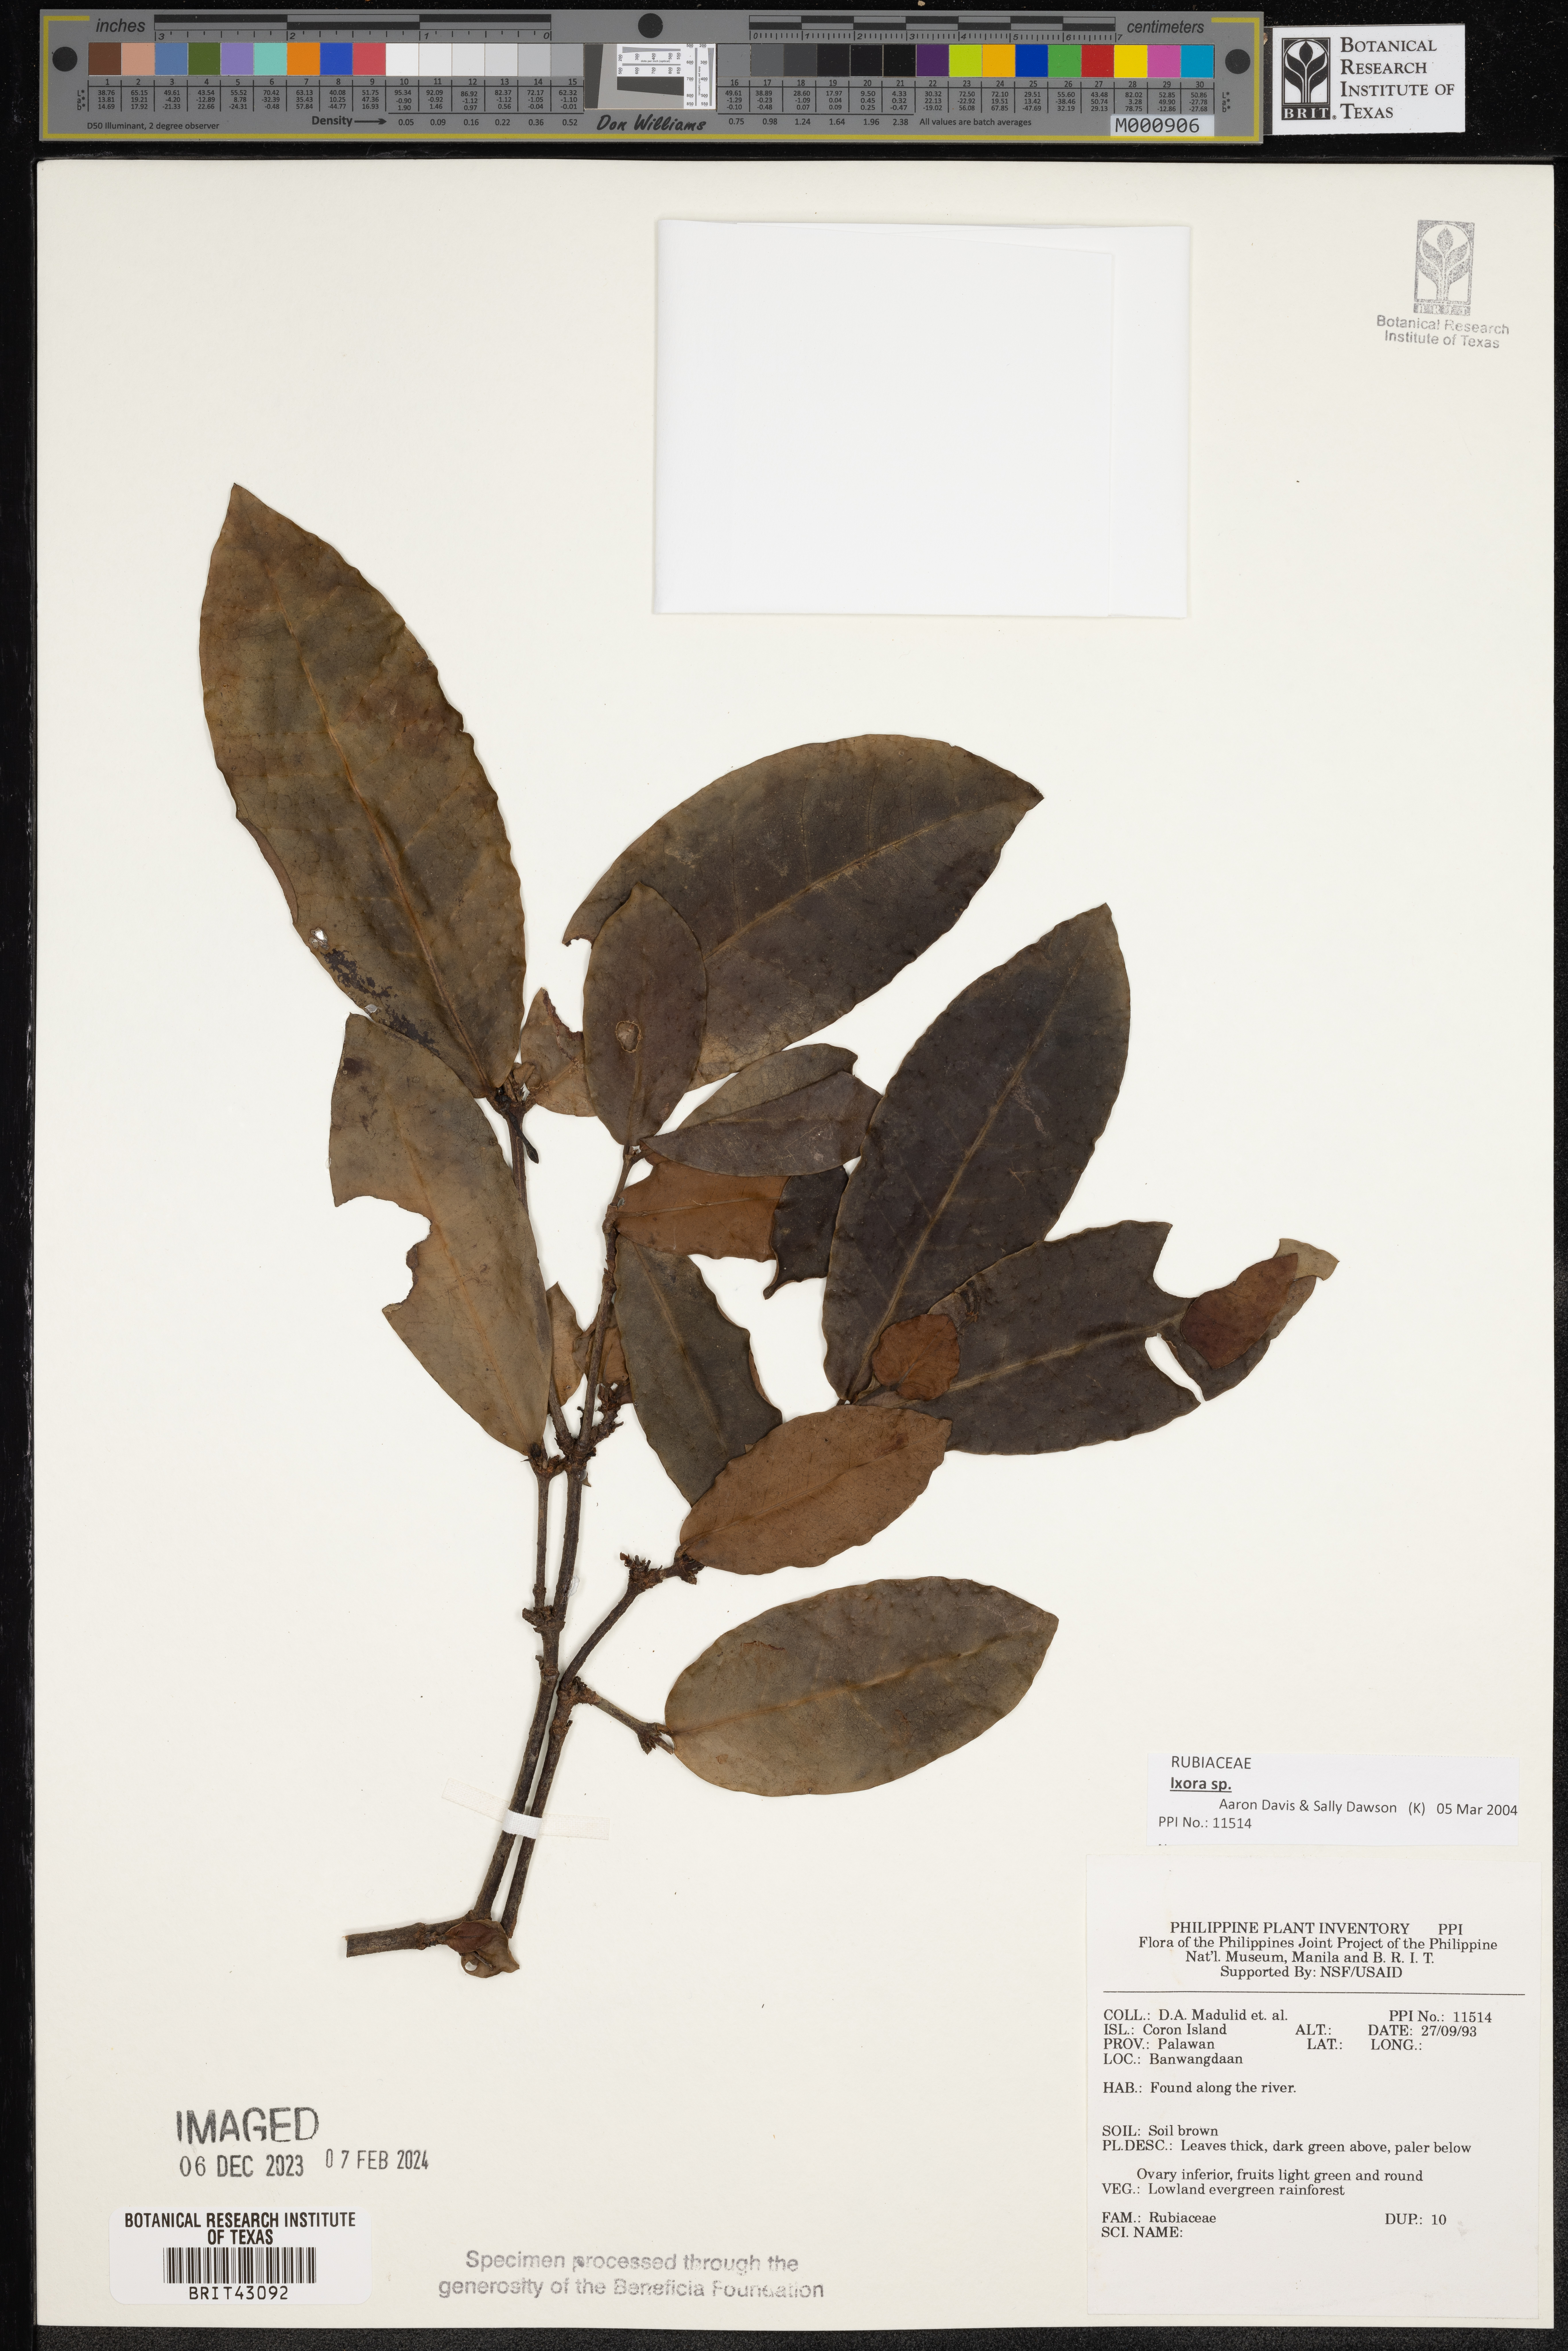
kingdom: Plantae
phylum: Tracheophyta
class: Magnoliopsida
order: Gentianales
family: Rubiaceae
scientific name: Rubiaceae
